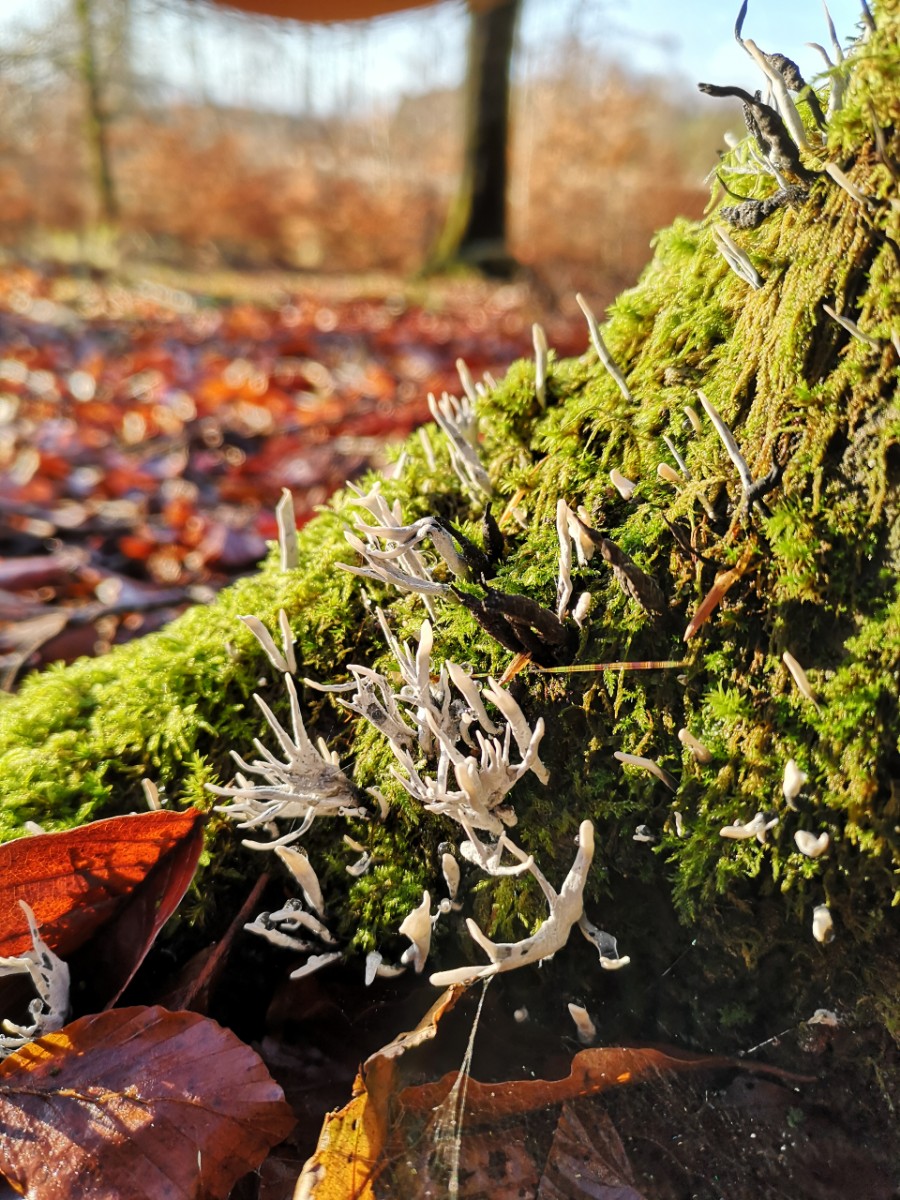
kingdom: Fungi
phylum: Ascomycota
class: Sordariomycetes
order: Xylariales
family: Xylariaceae
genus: Xylaria
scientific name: Xylaria hypoxylon
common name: grenet stødsvamp
